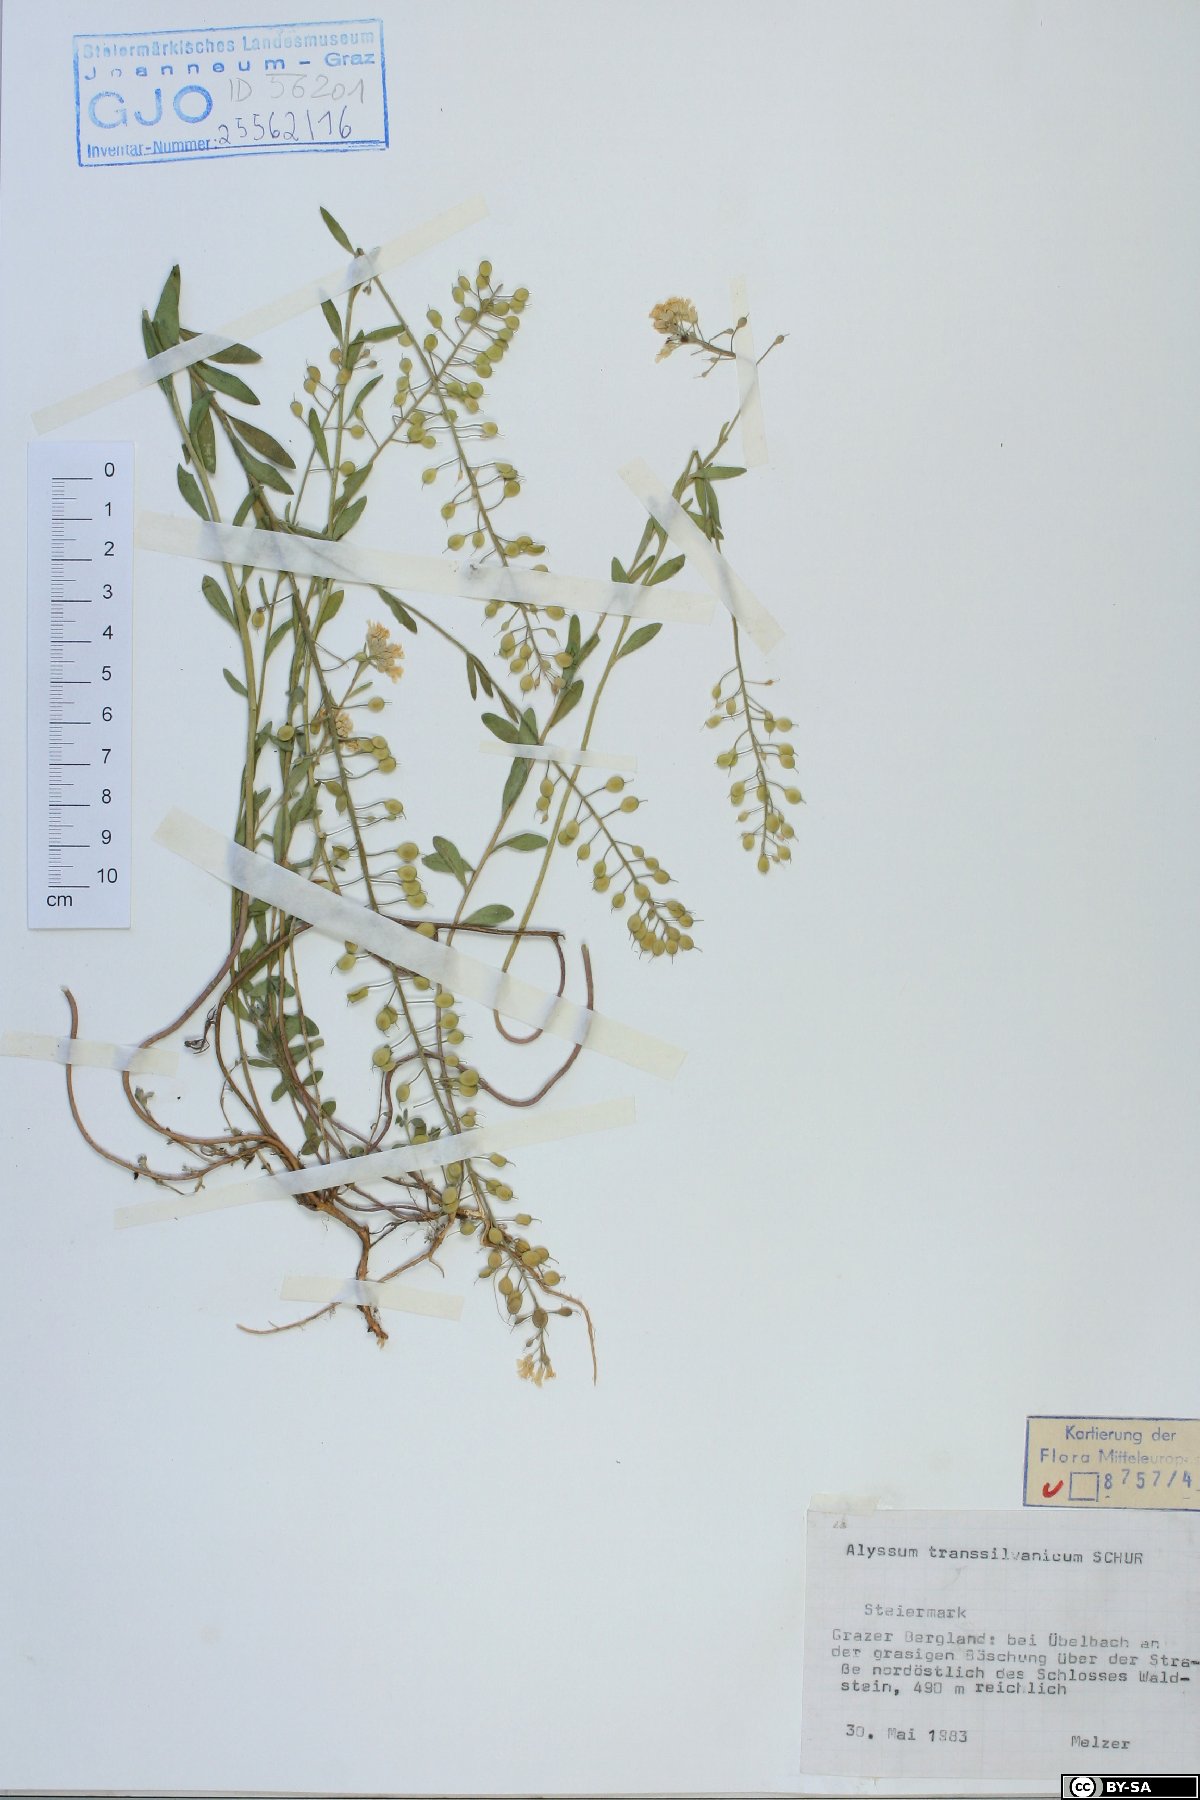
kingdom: Plantae
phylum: Tracheophyta
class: Magnoliopsida
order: Brassicales
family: Brassicaceae
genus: Alyssum
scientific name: Alyssum repens
